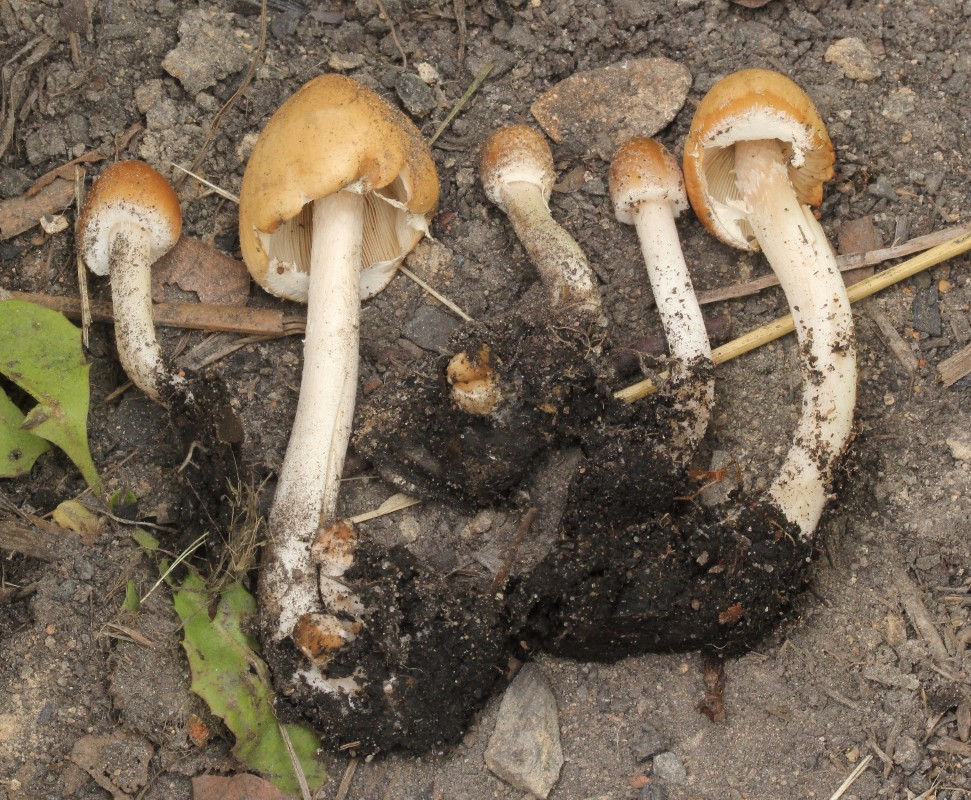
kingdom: Fungi
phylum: Basidiomycota
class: Agaricomycetes
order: Agaricales
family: Psathyrellaceae
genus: Candolleomyces
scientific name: Candolleomyces candolleanus
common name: Candolles mørkhat
